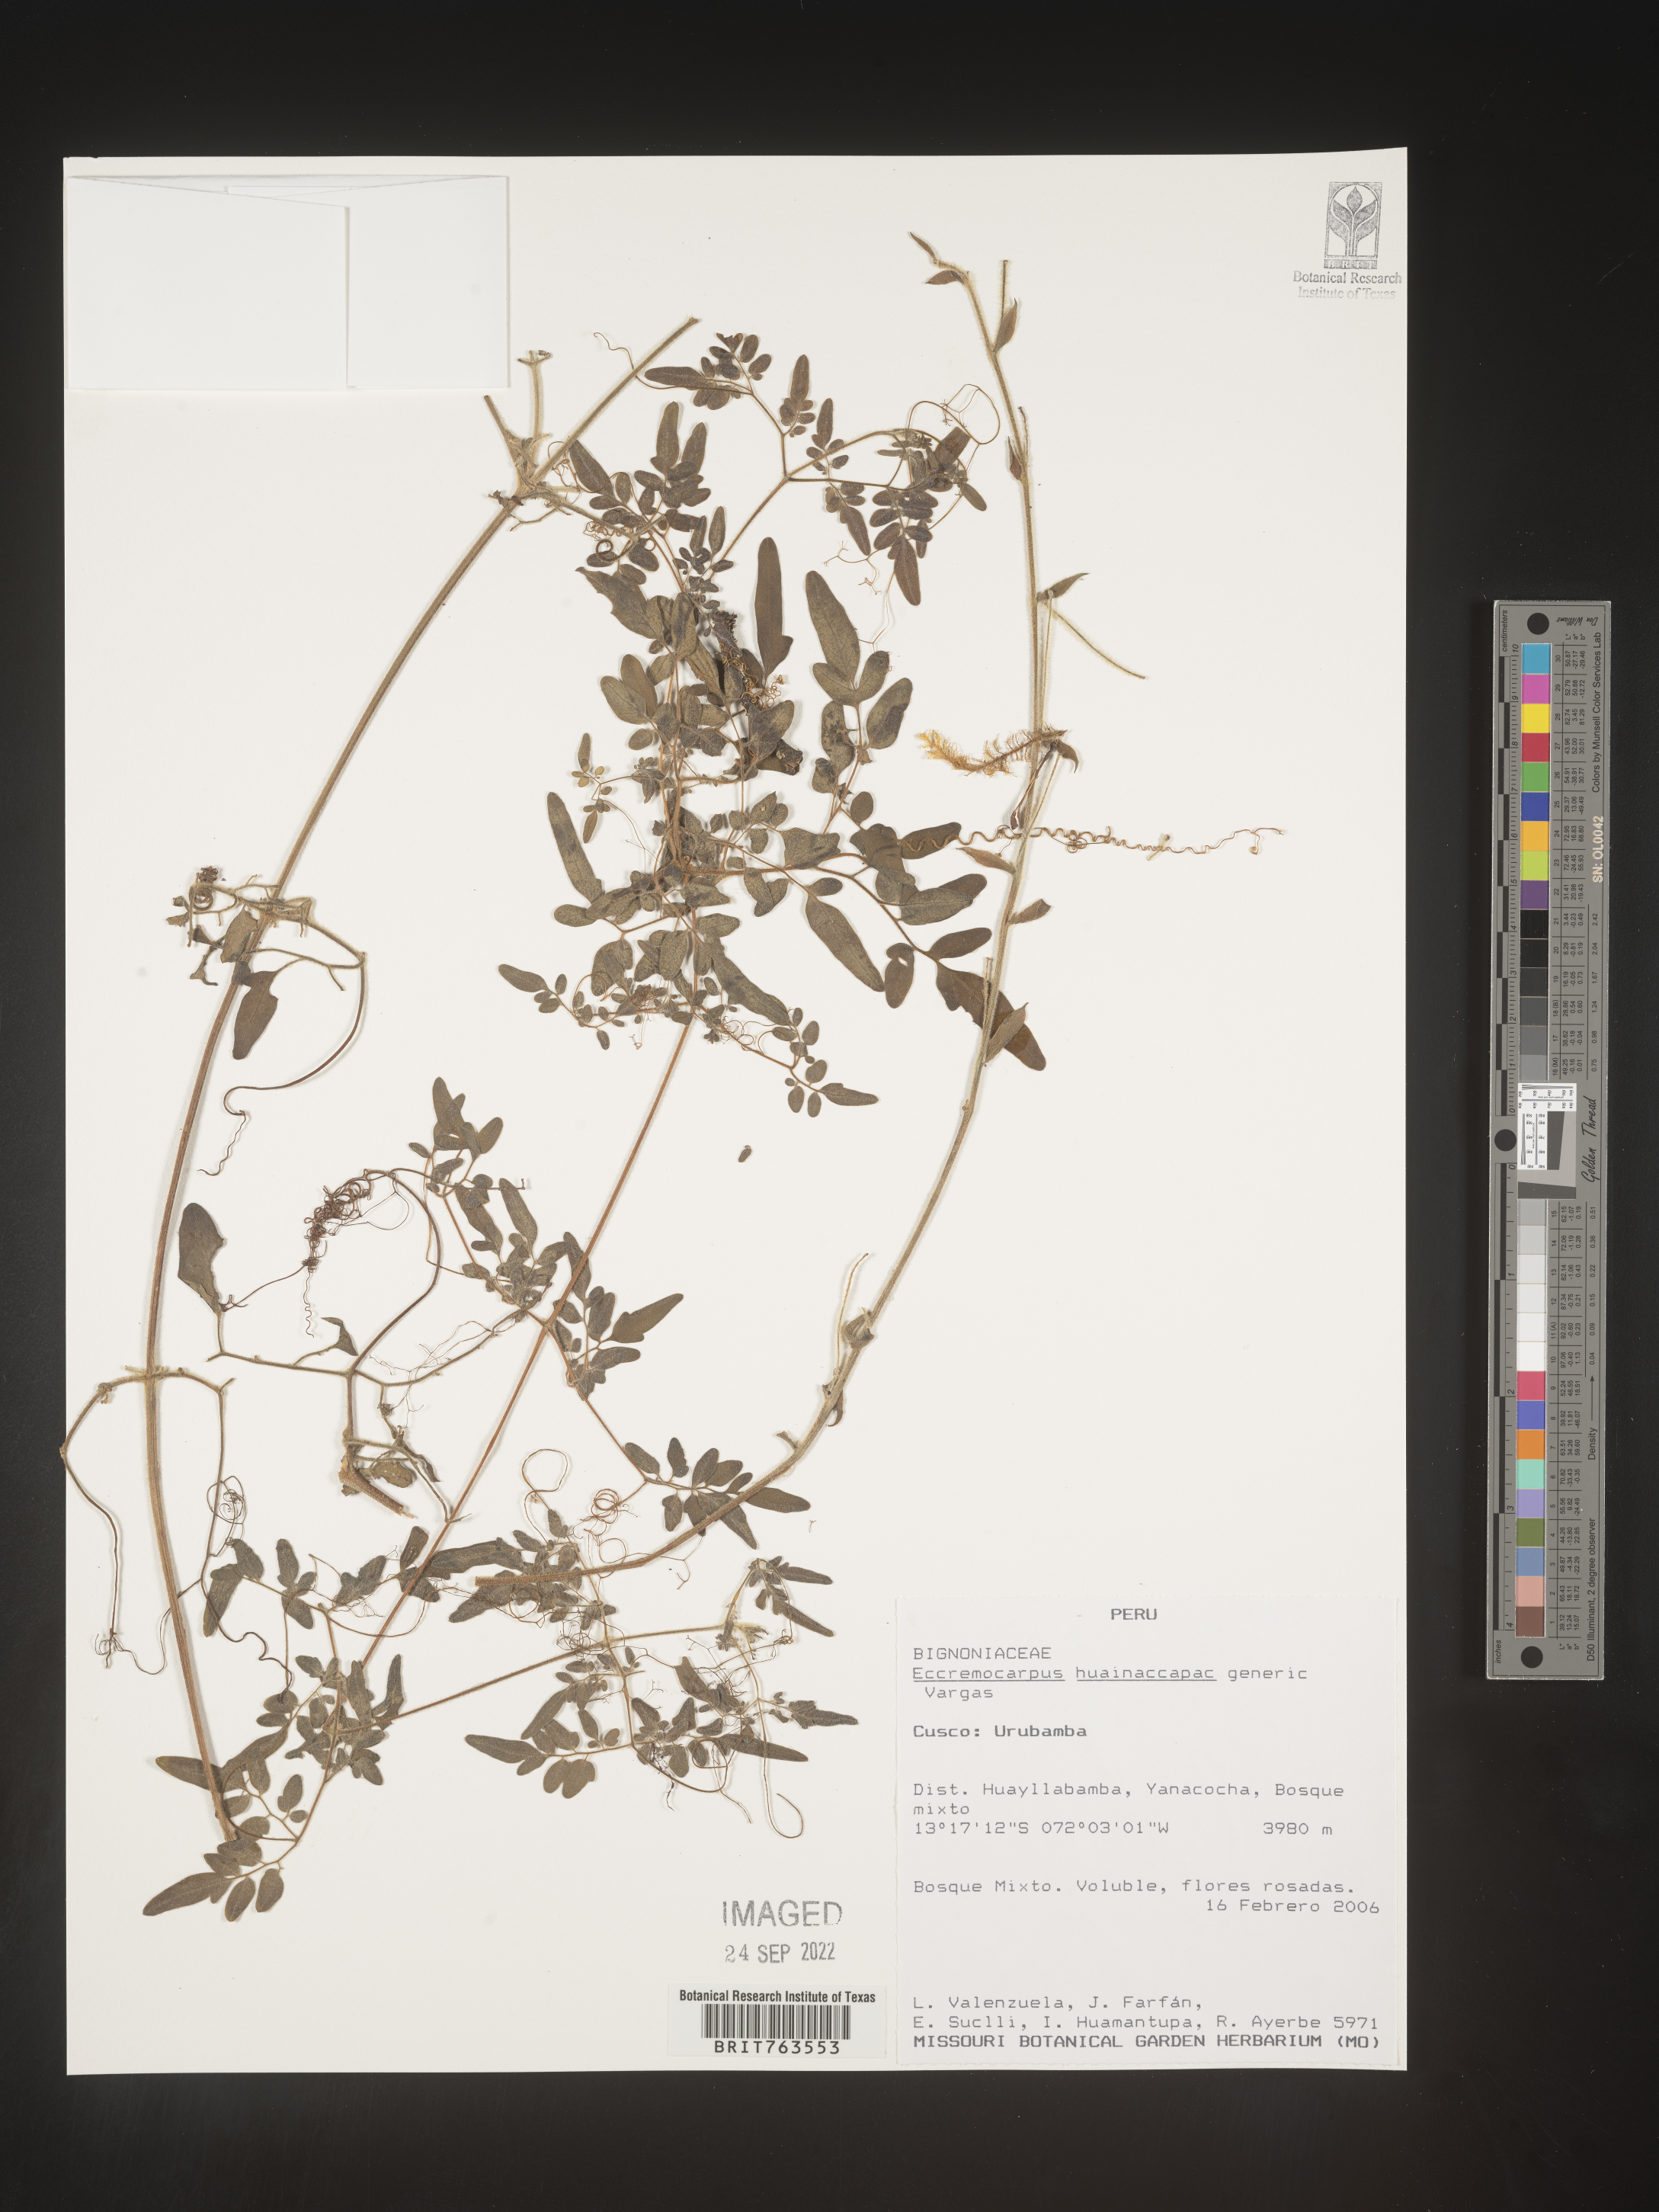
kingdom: Plantae
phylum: Tracheophyta
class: Magnoliopsida
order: Lamiales
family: Bignoniaceae
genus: Eccremocarpus
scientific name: Eccremocarpus
